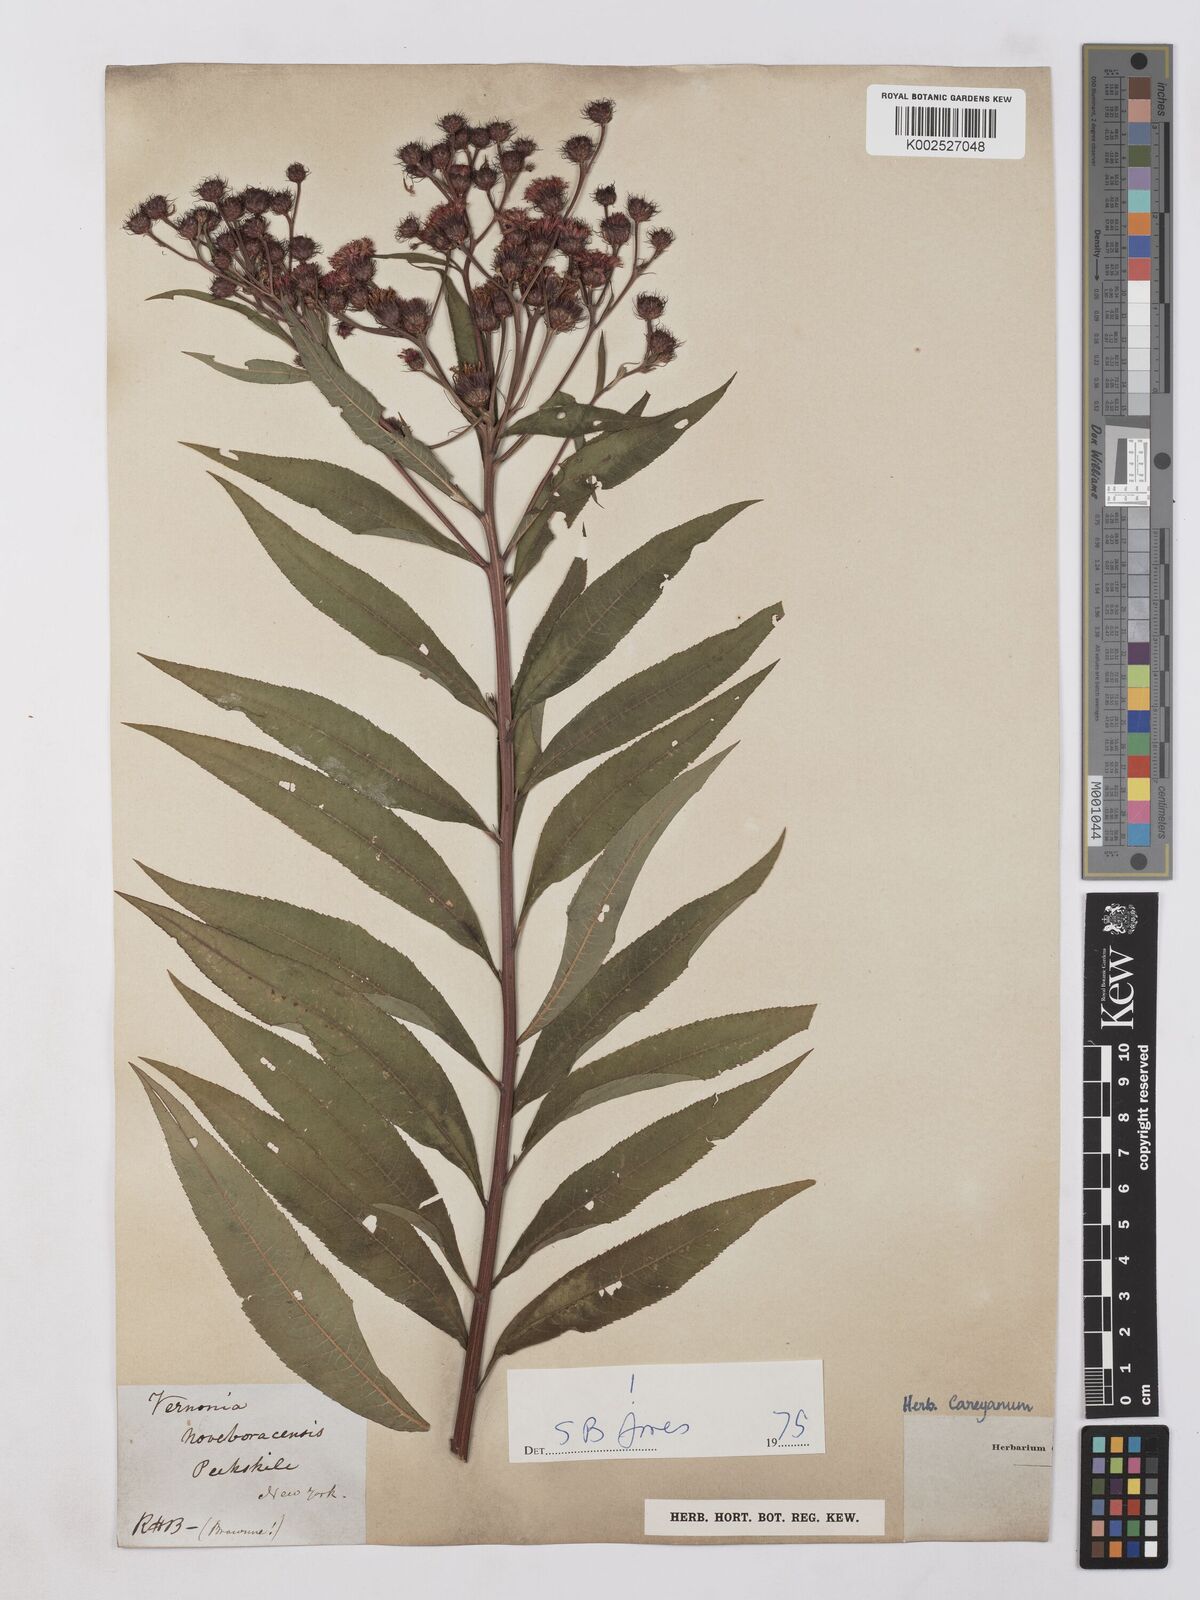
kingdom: Plantae
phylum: Tracheophyta
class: Magnoliopsida
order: Asterales
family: Asteraceae
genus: Vernonia
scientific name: Vernonia noveboracensis
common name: New york ironweed
